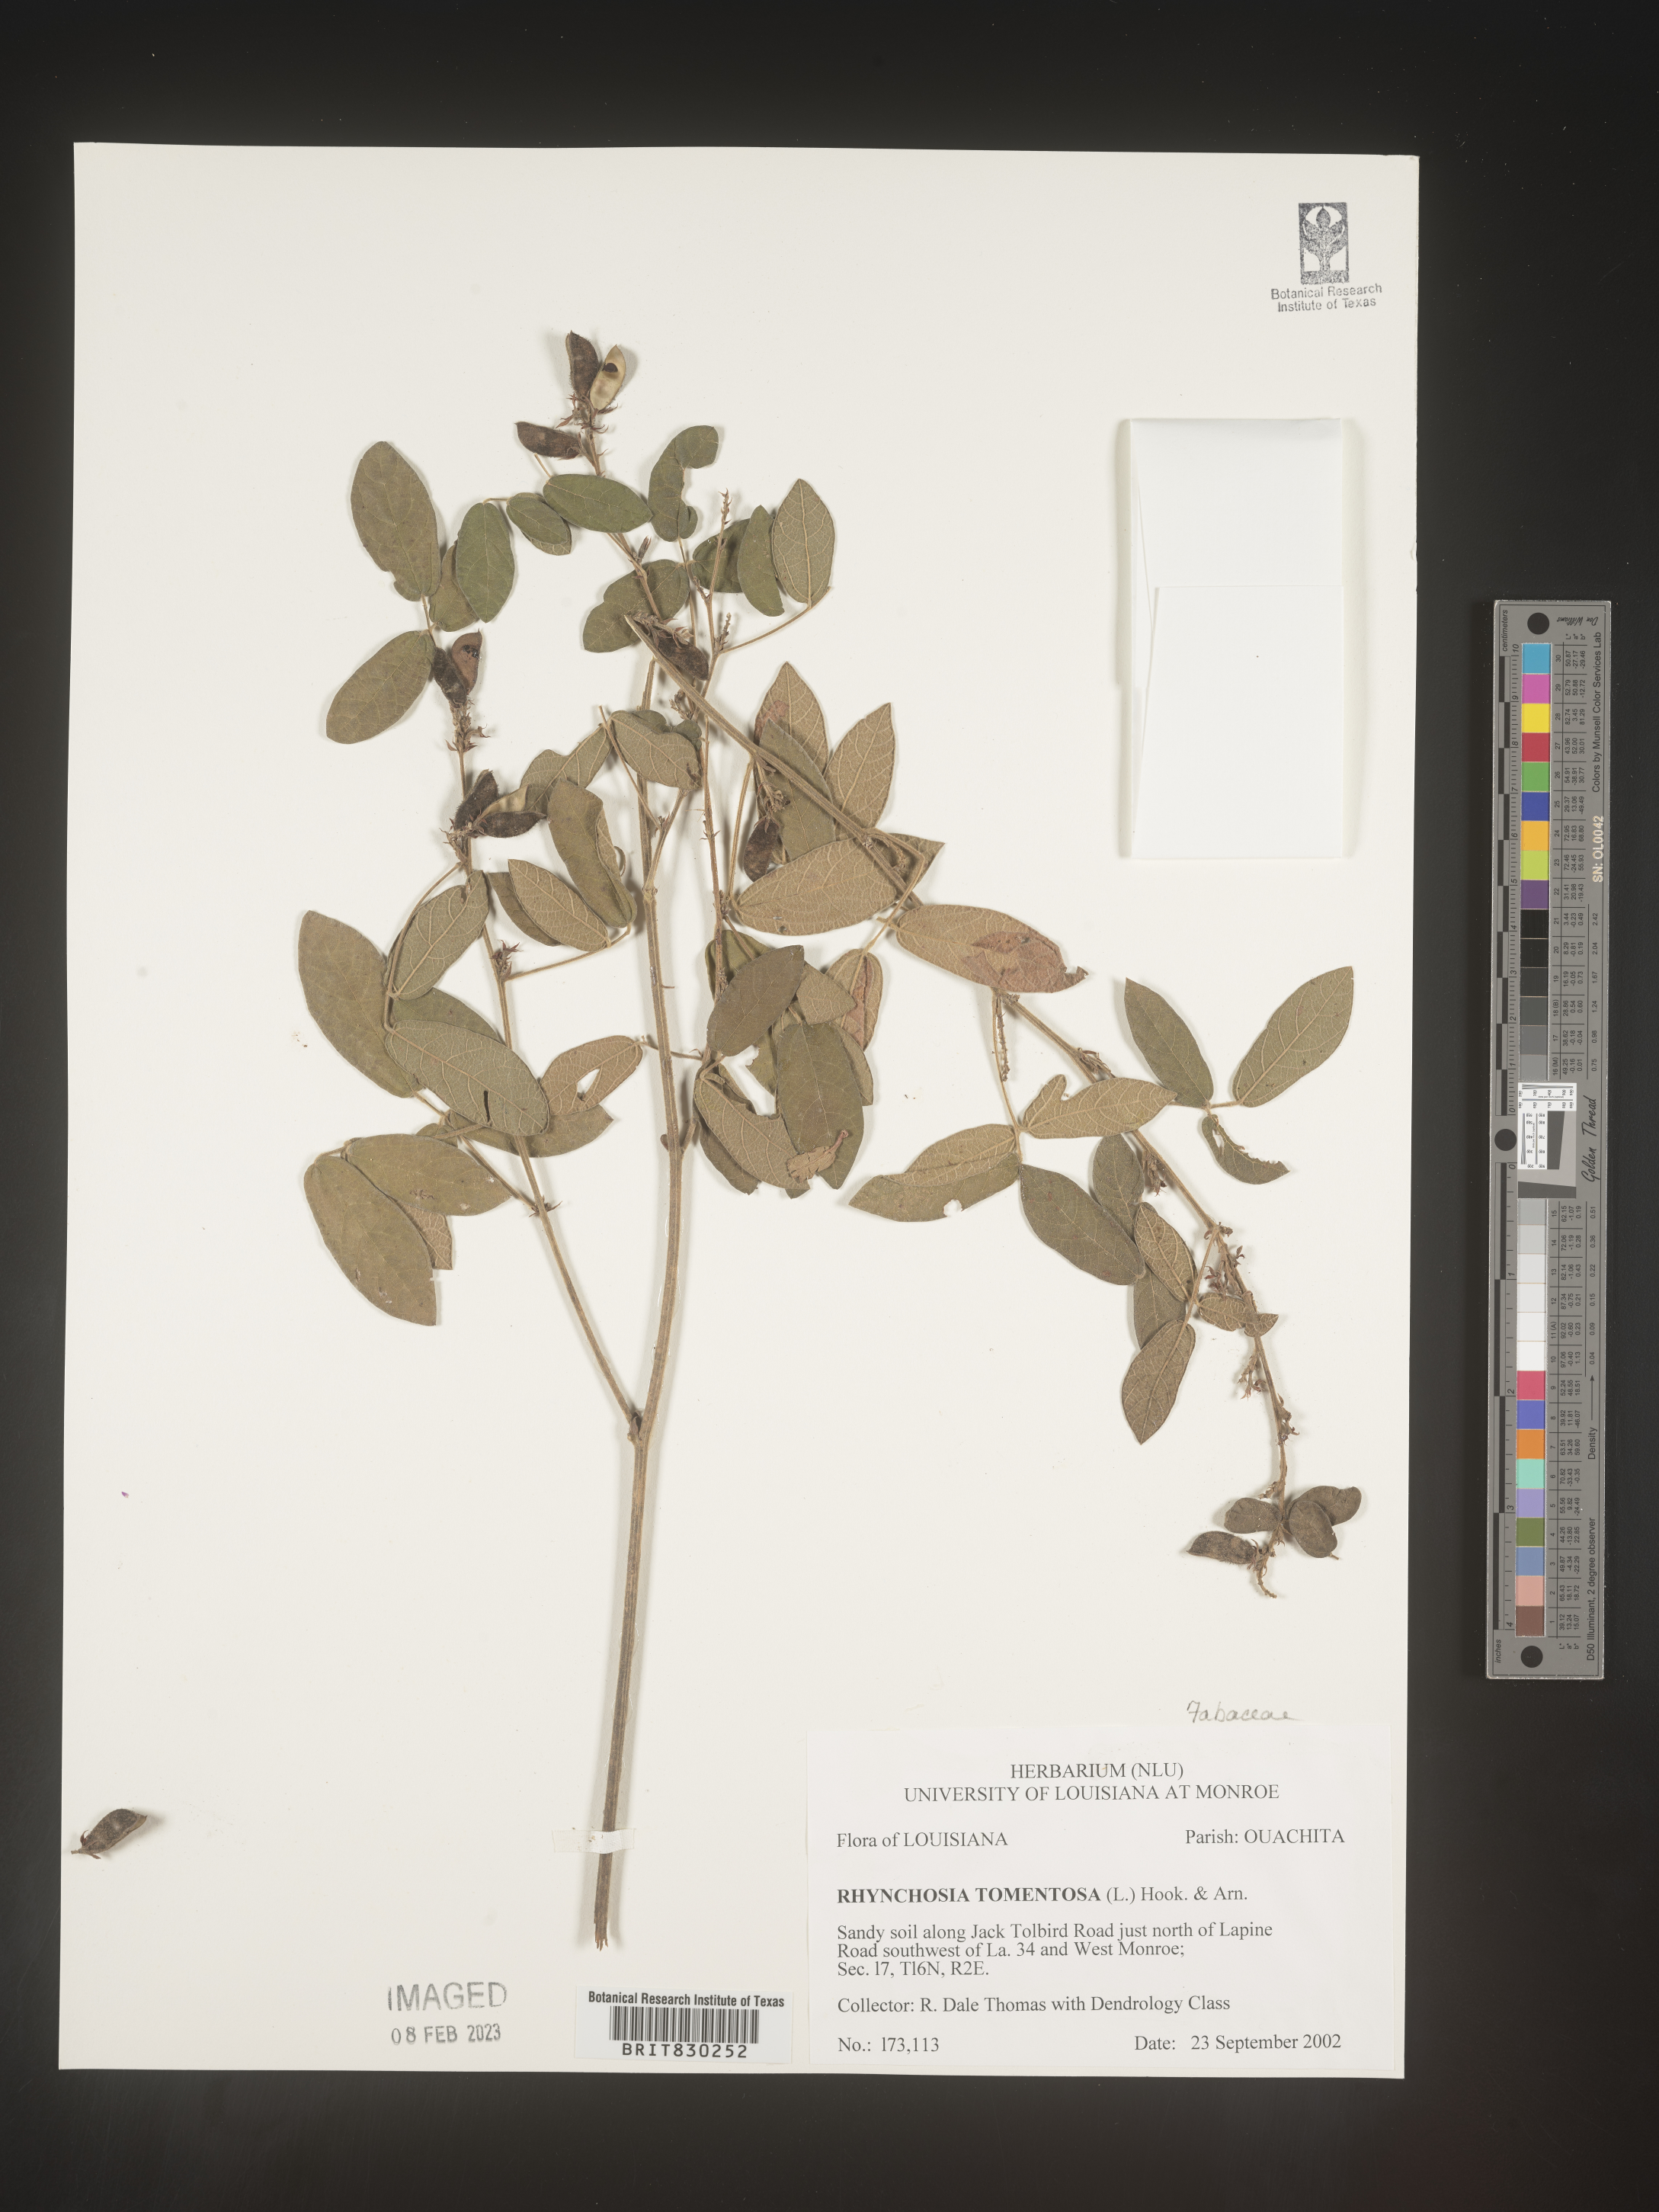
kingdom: Plantae
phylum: Tracheophyta
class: Magnoliopsida
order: Fabales
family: Fabaceae
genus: Rhynchosia
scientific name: Rhynchosia rothii
